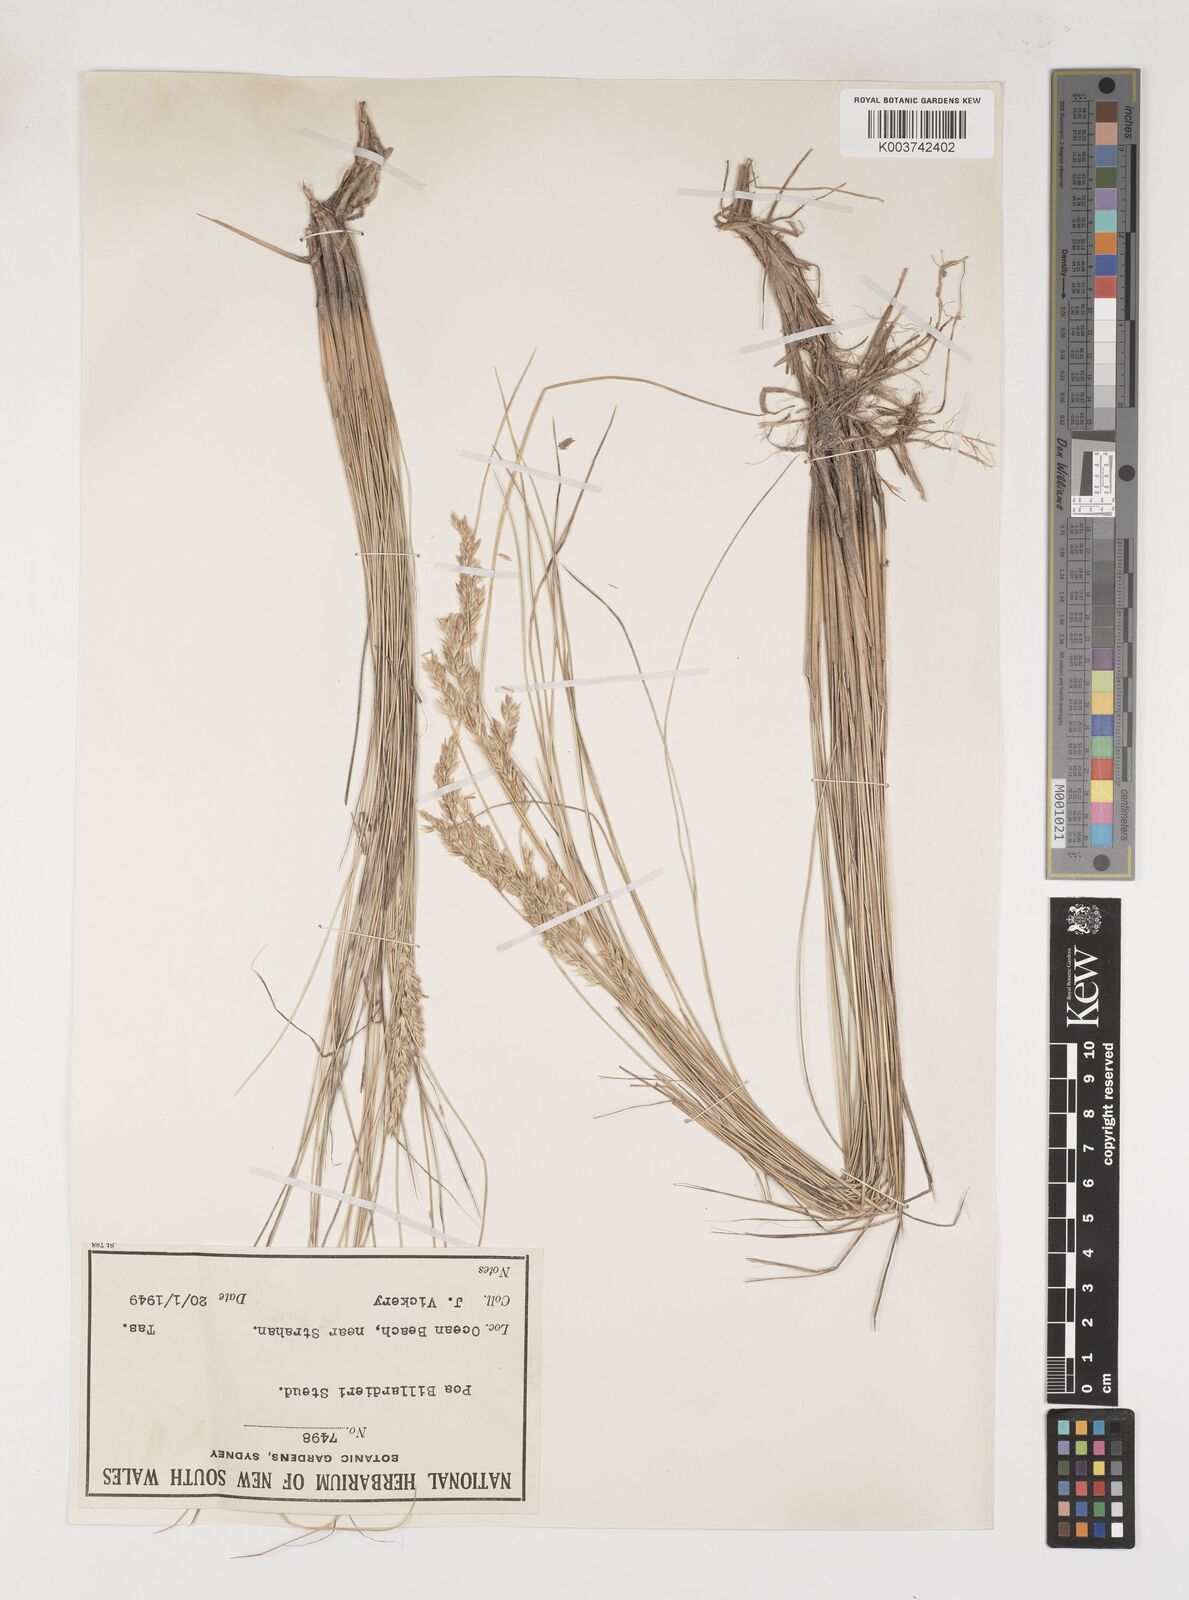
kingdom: Plantae
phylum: Tracheophyta
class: Liliopsida
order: Poales
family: Poaceae
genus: Poa
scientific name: Poa poiformis
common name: Tussock poa
